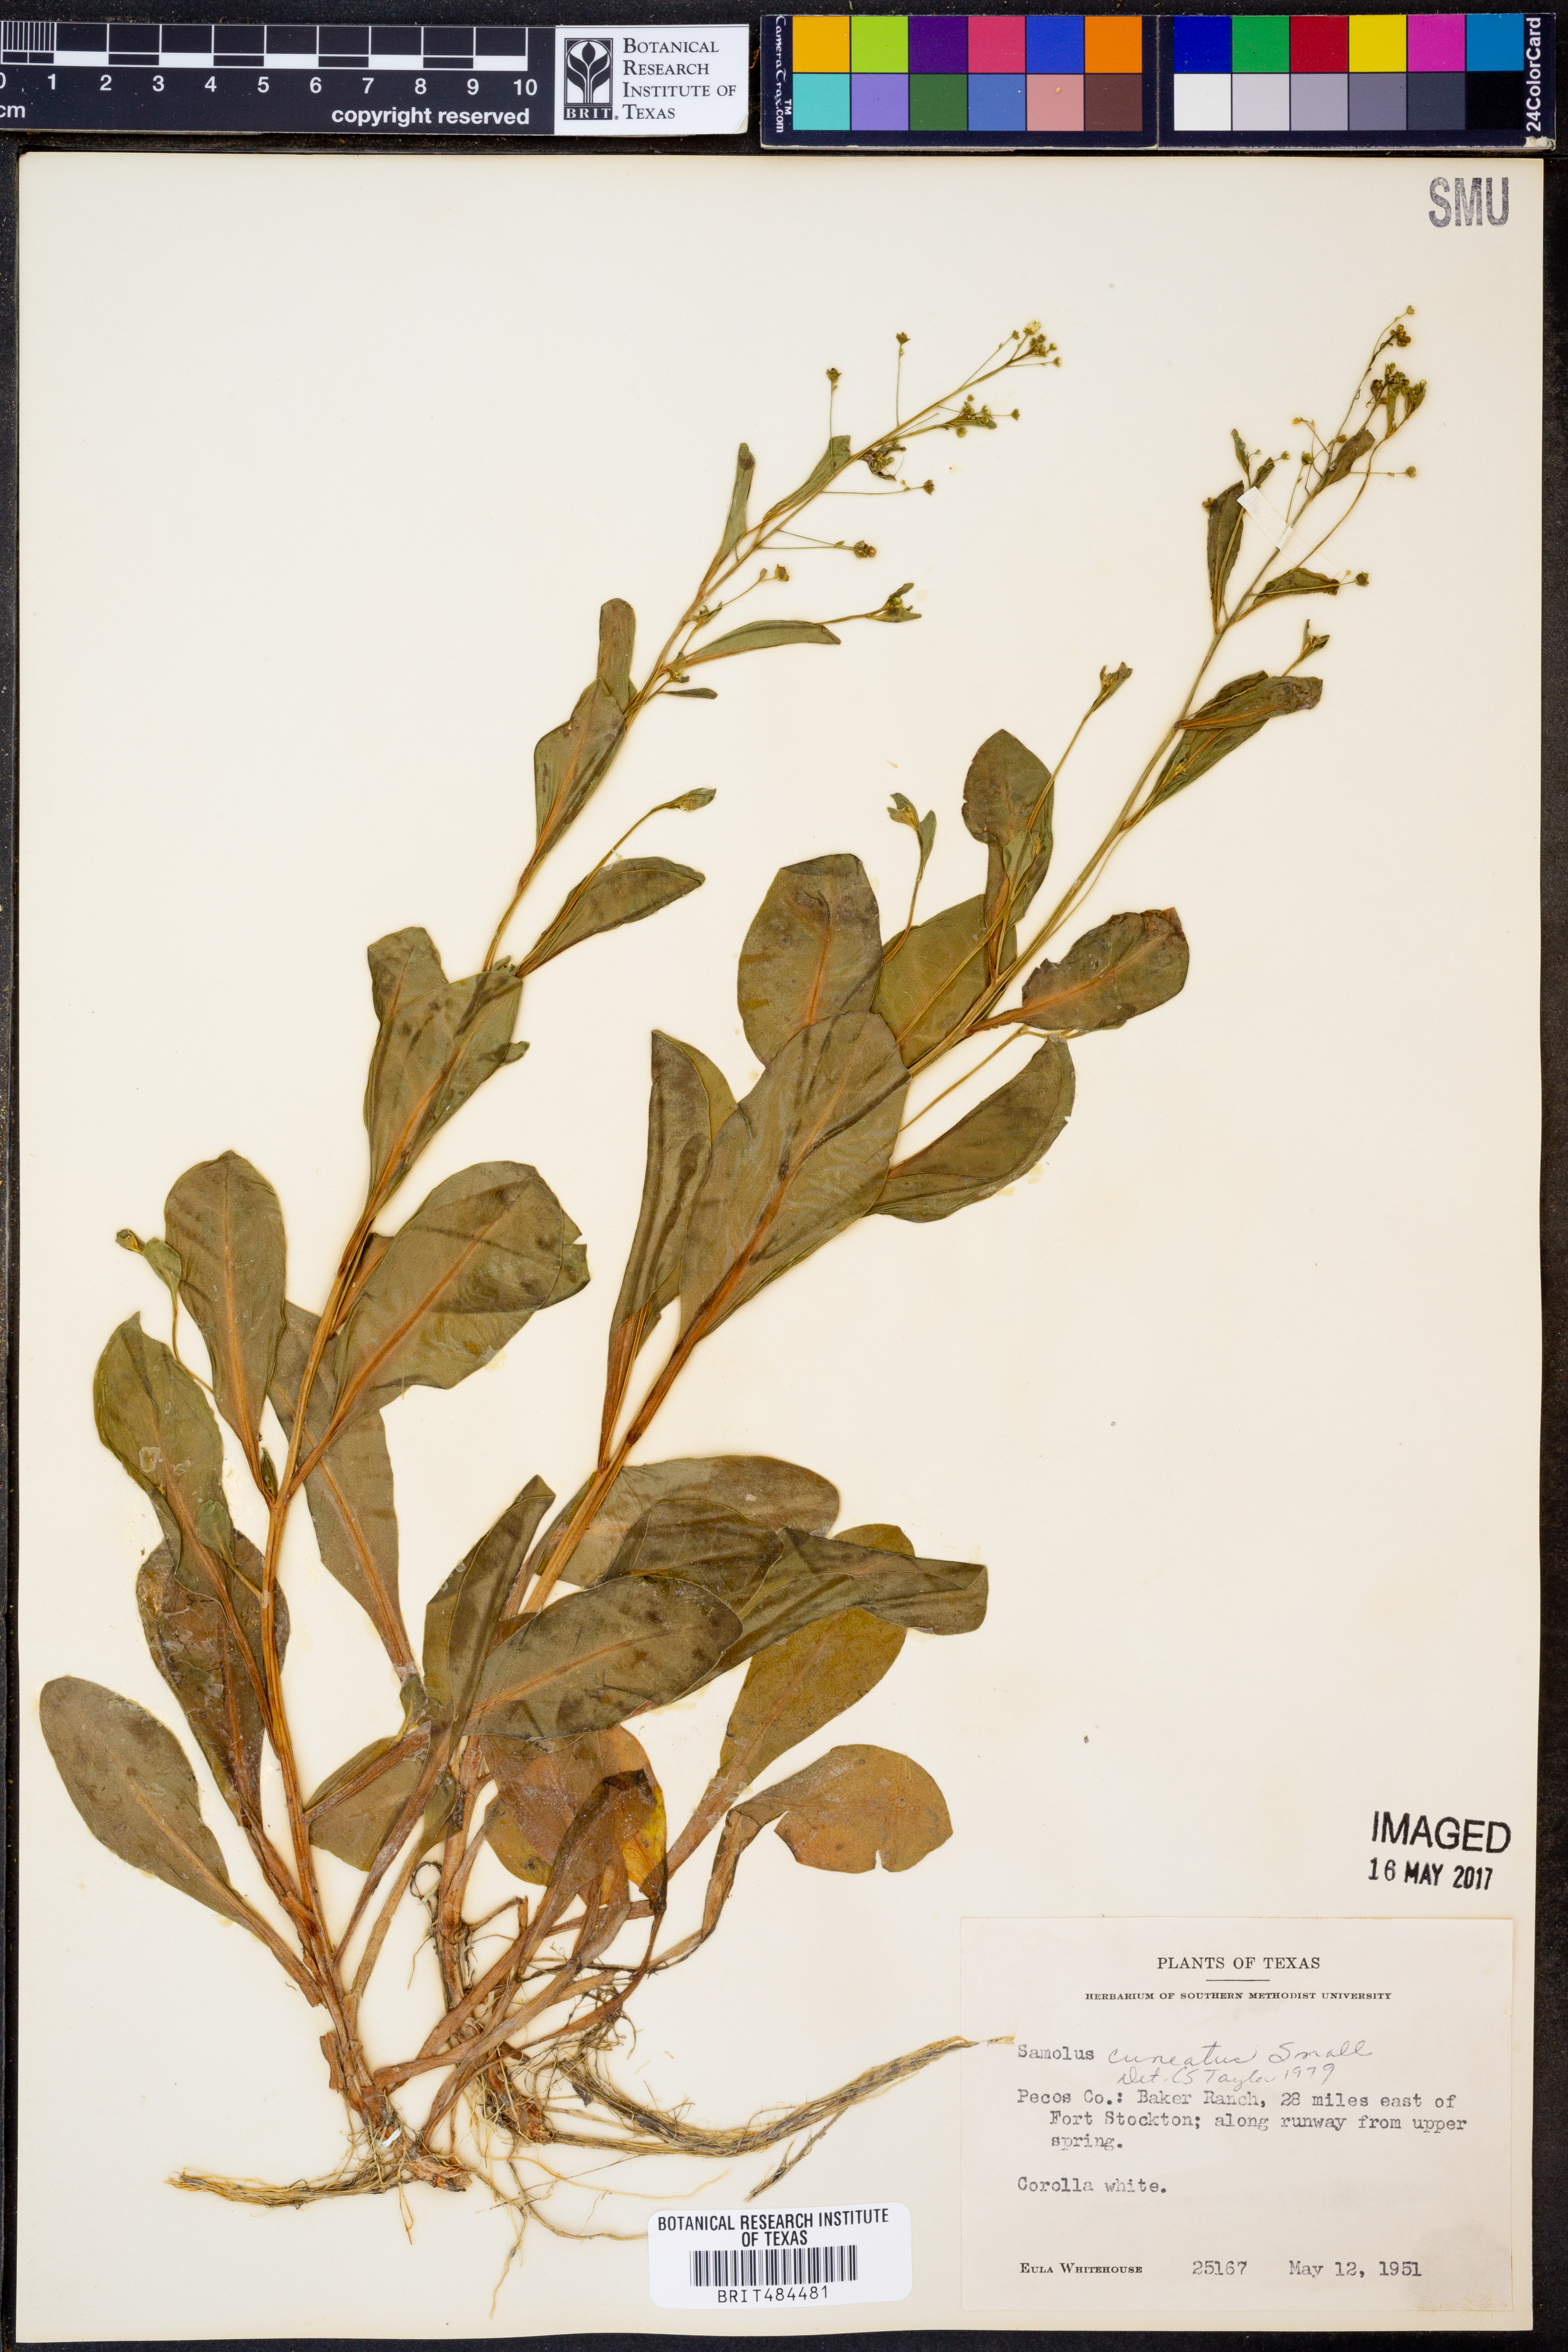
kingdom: Plantae
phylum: Tracheophyta
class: Magnoliopsida
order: Ericales
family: Primulaceae
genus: Samolus
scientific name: Samolus ebracteatus
